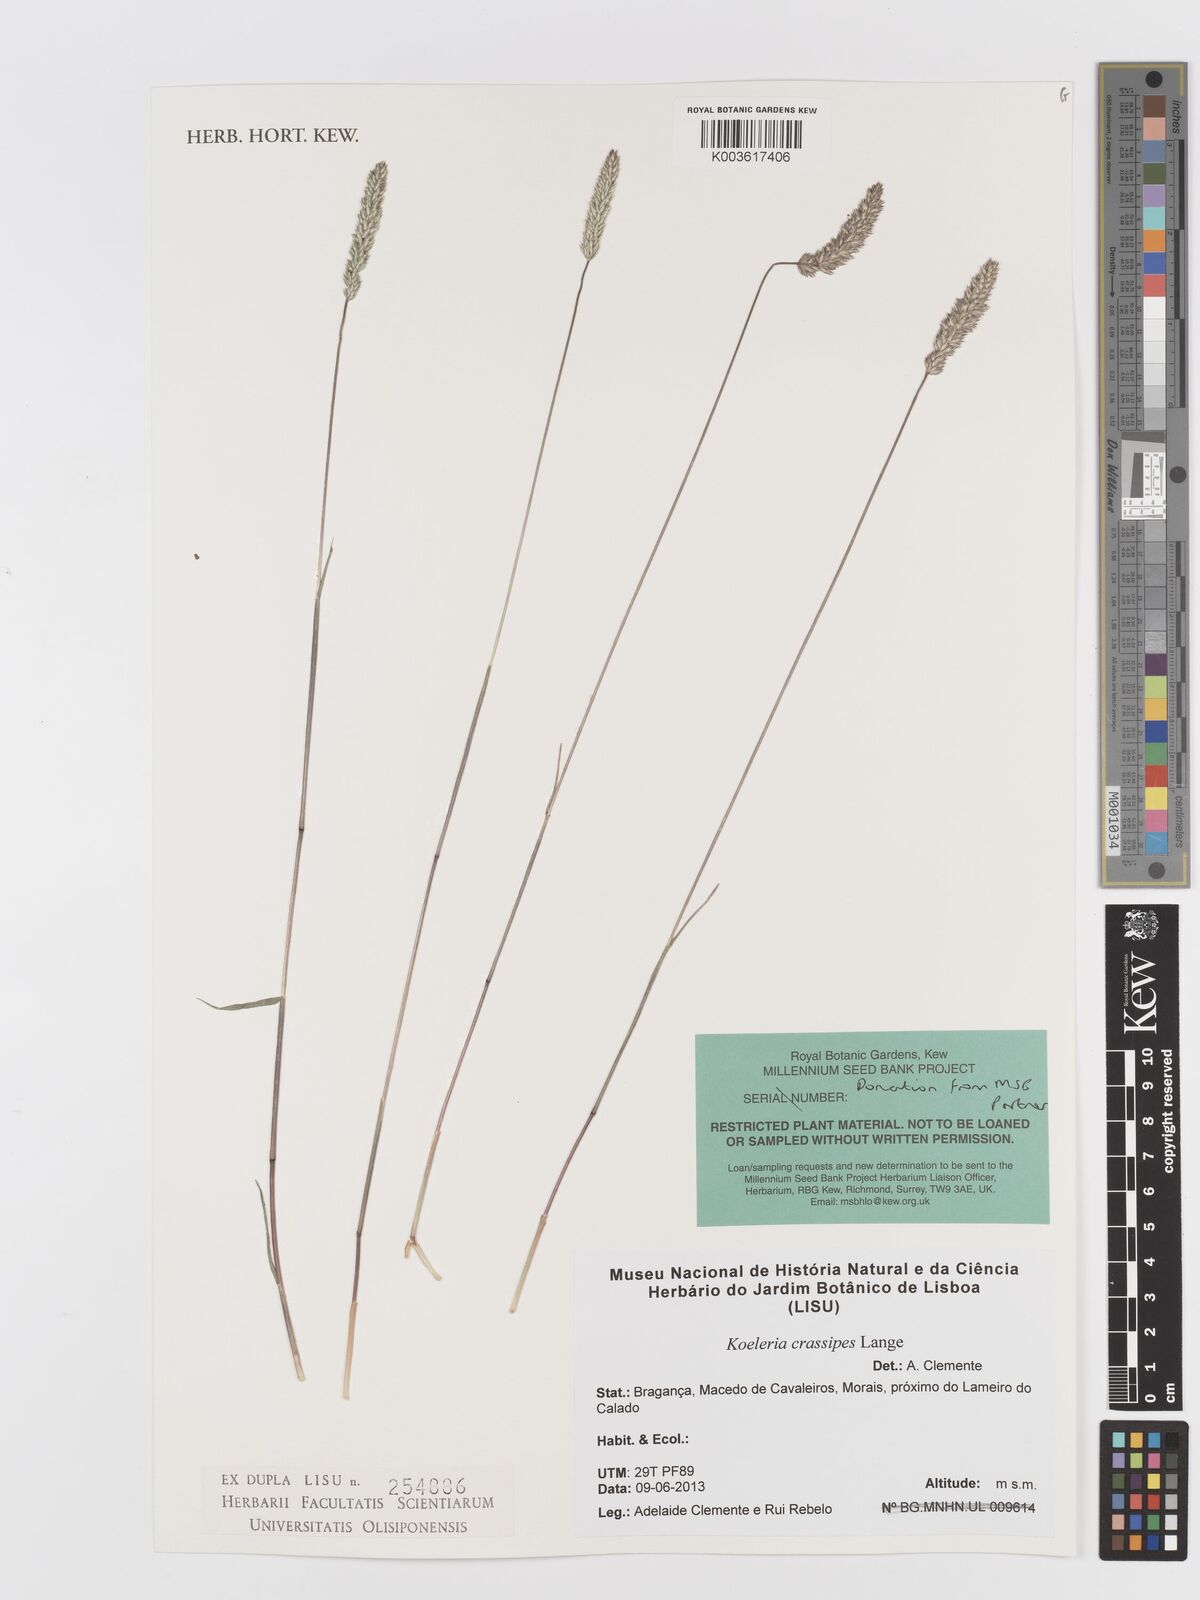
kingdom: Plantae
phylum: Tracheophyta
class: Liliopsida
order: Poales
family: Poaceae
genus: Koeleria
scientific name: Koeleria crassipes
